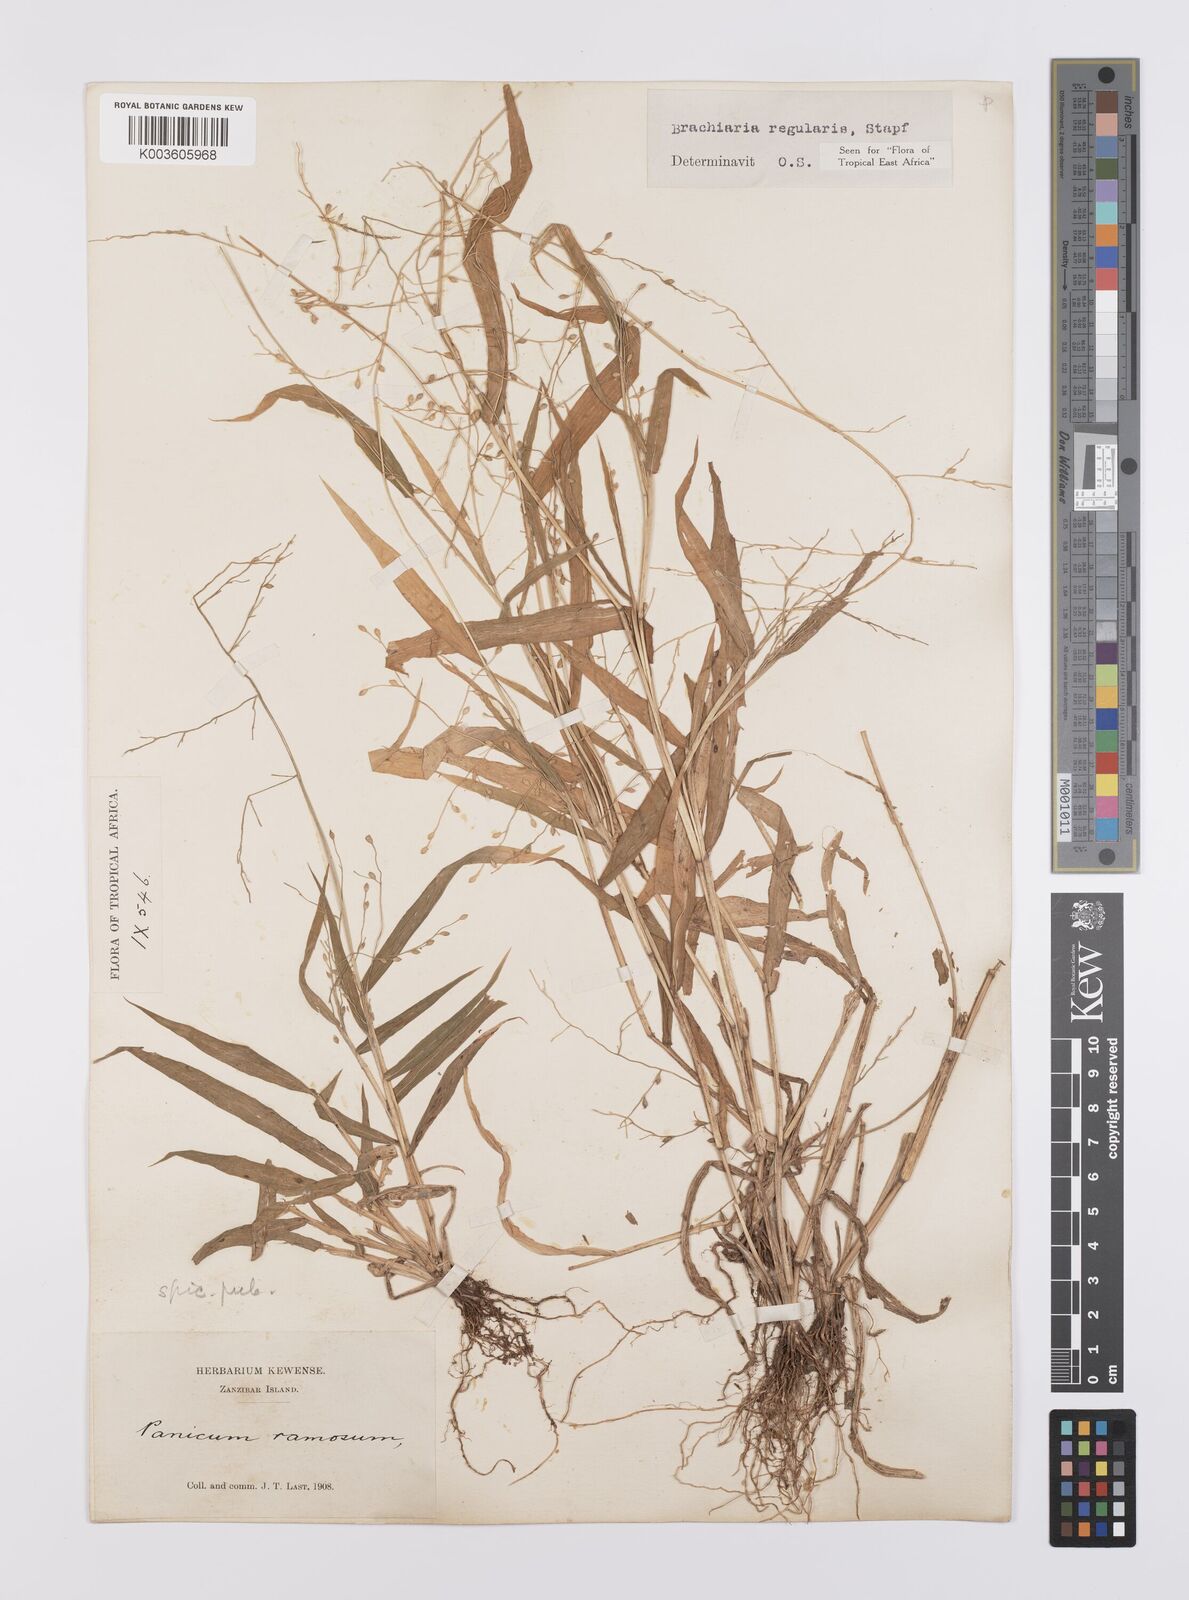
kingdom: Plantae
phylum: Tracheophyta
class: Liliopsida
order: Poales
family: Poaceae
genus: Urochloa
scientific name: Urochloa deflexa
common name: Guinea millet
